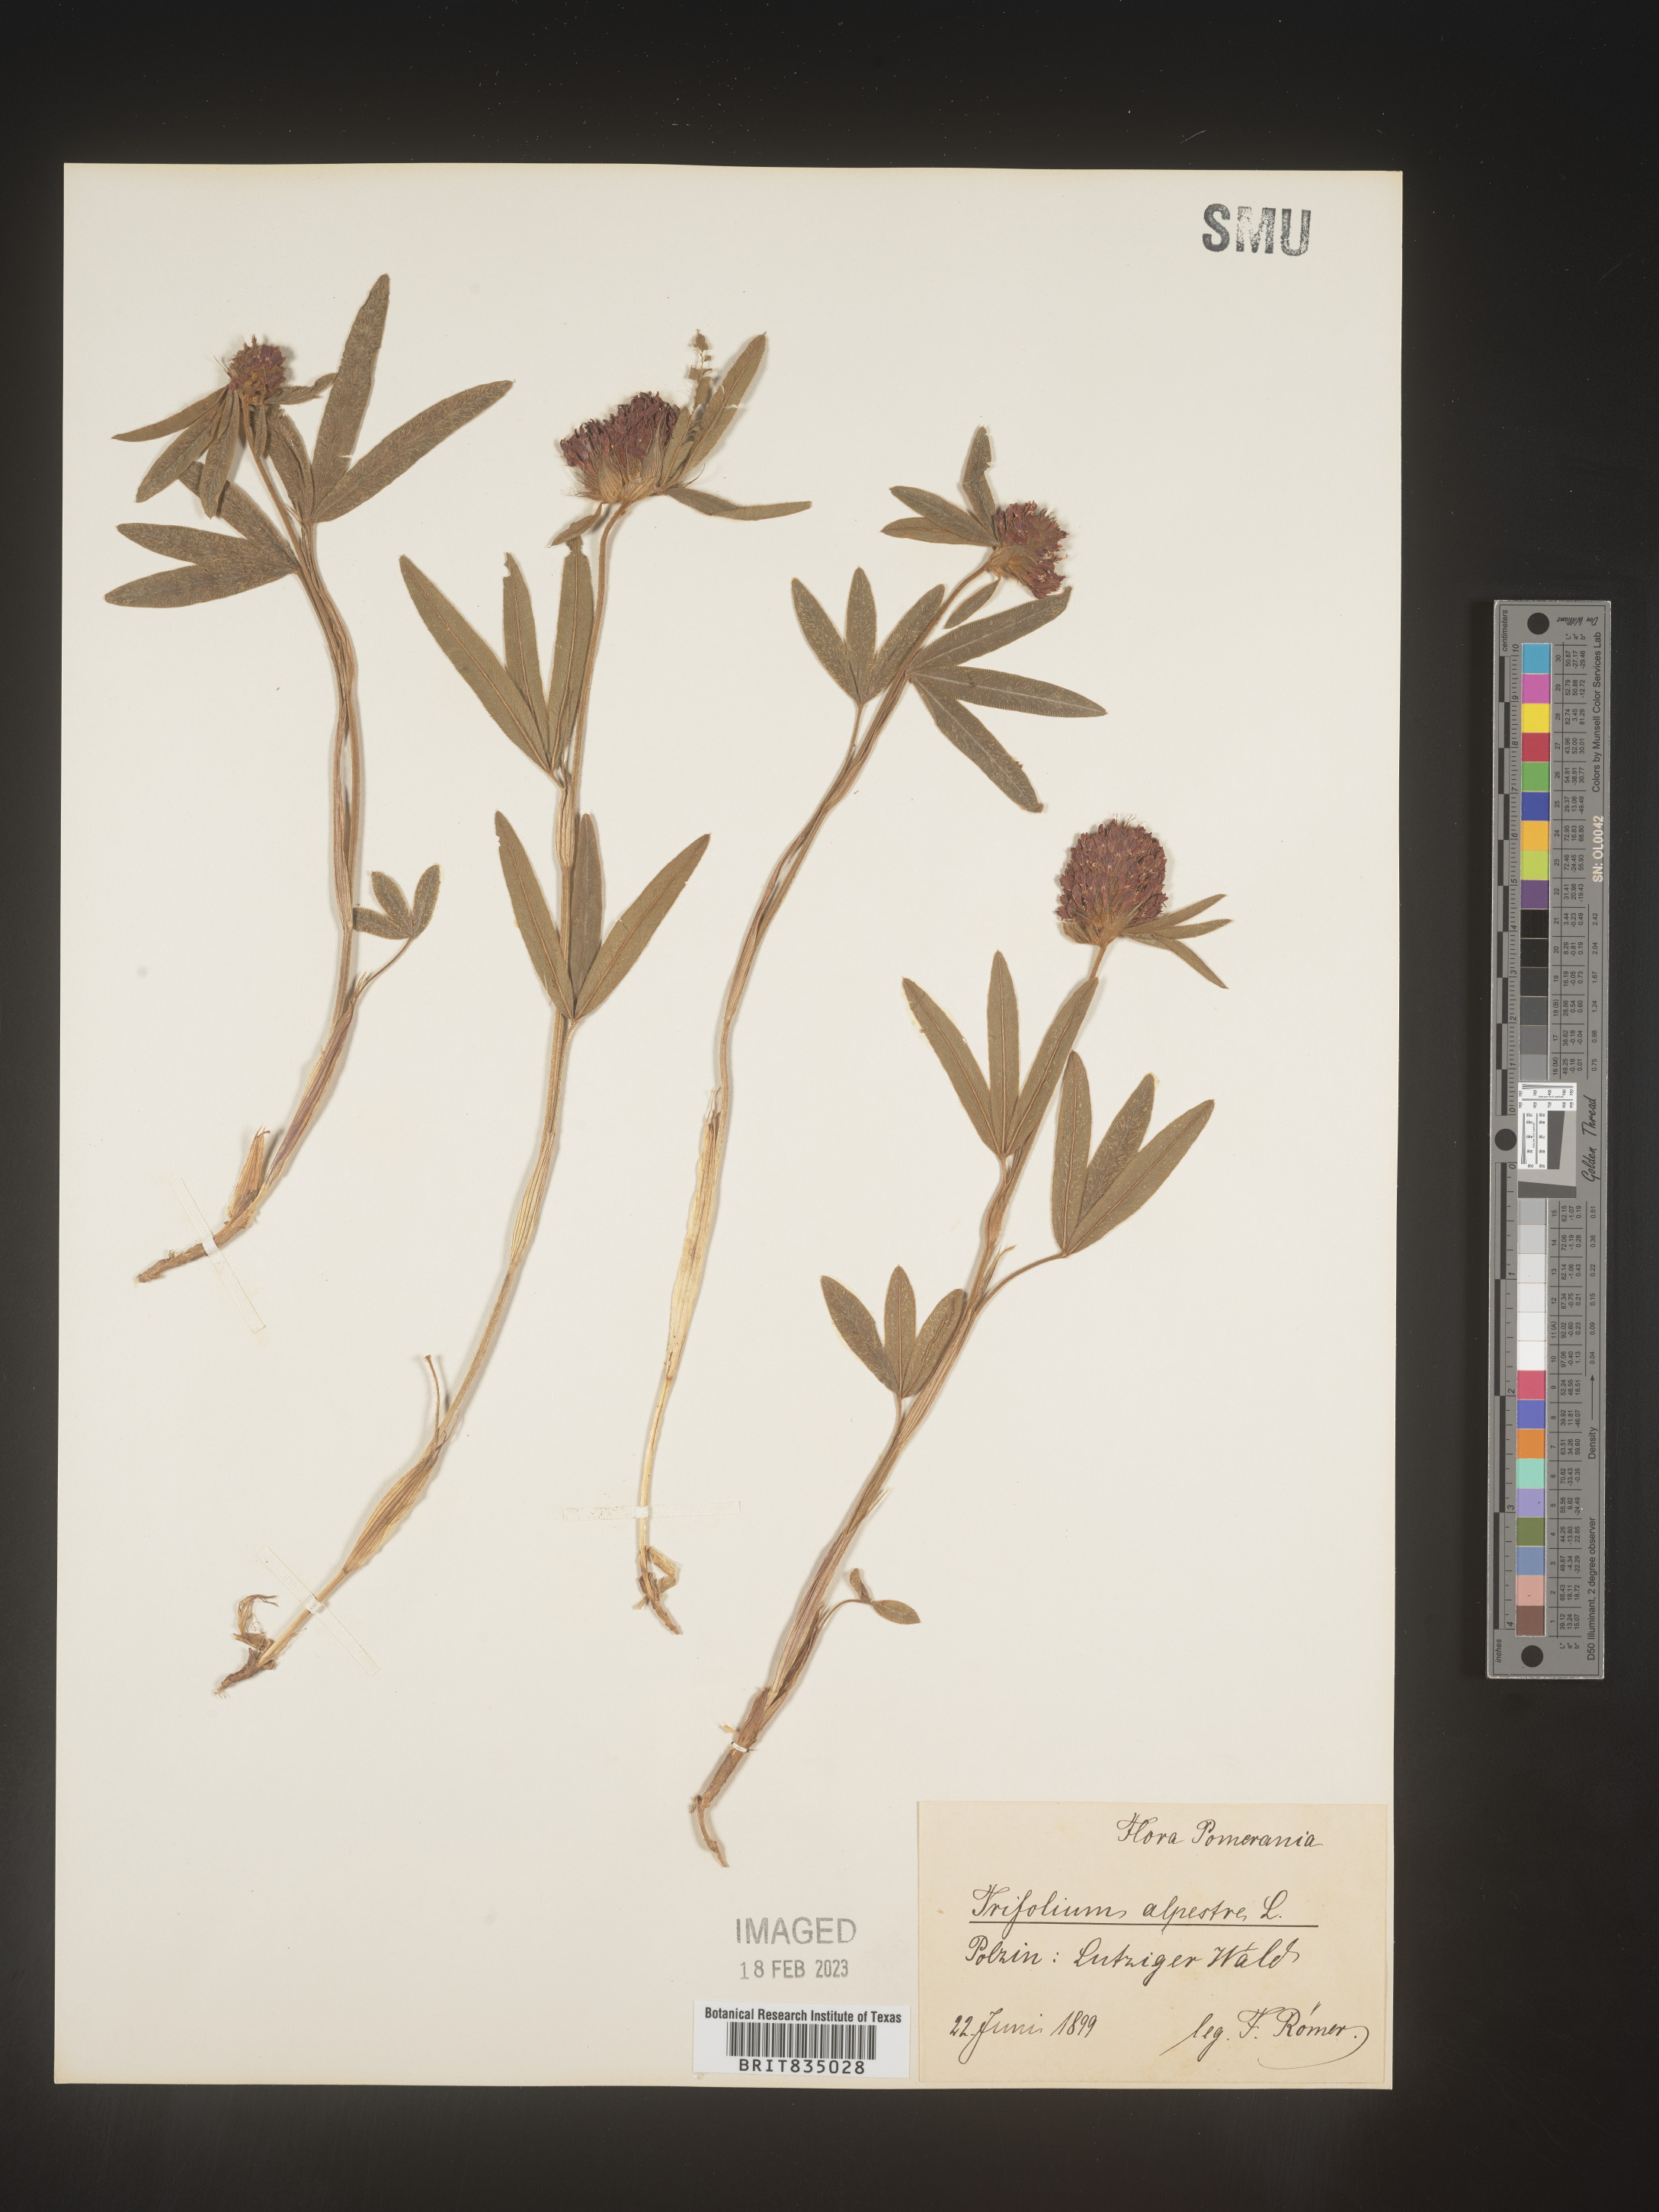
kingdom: Plantae
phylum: Tracheophyta
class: Magnoliopsida
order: Fabales
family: Fabaceae
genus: Trifolium
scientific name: Trifolium
